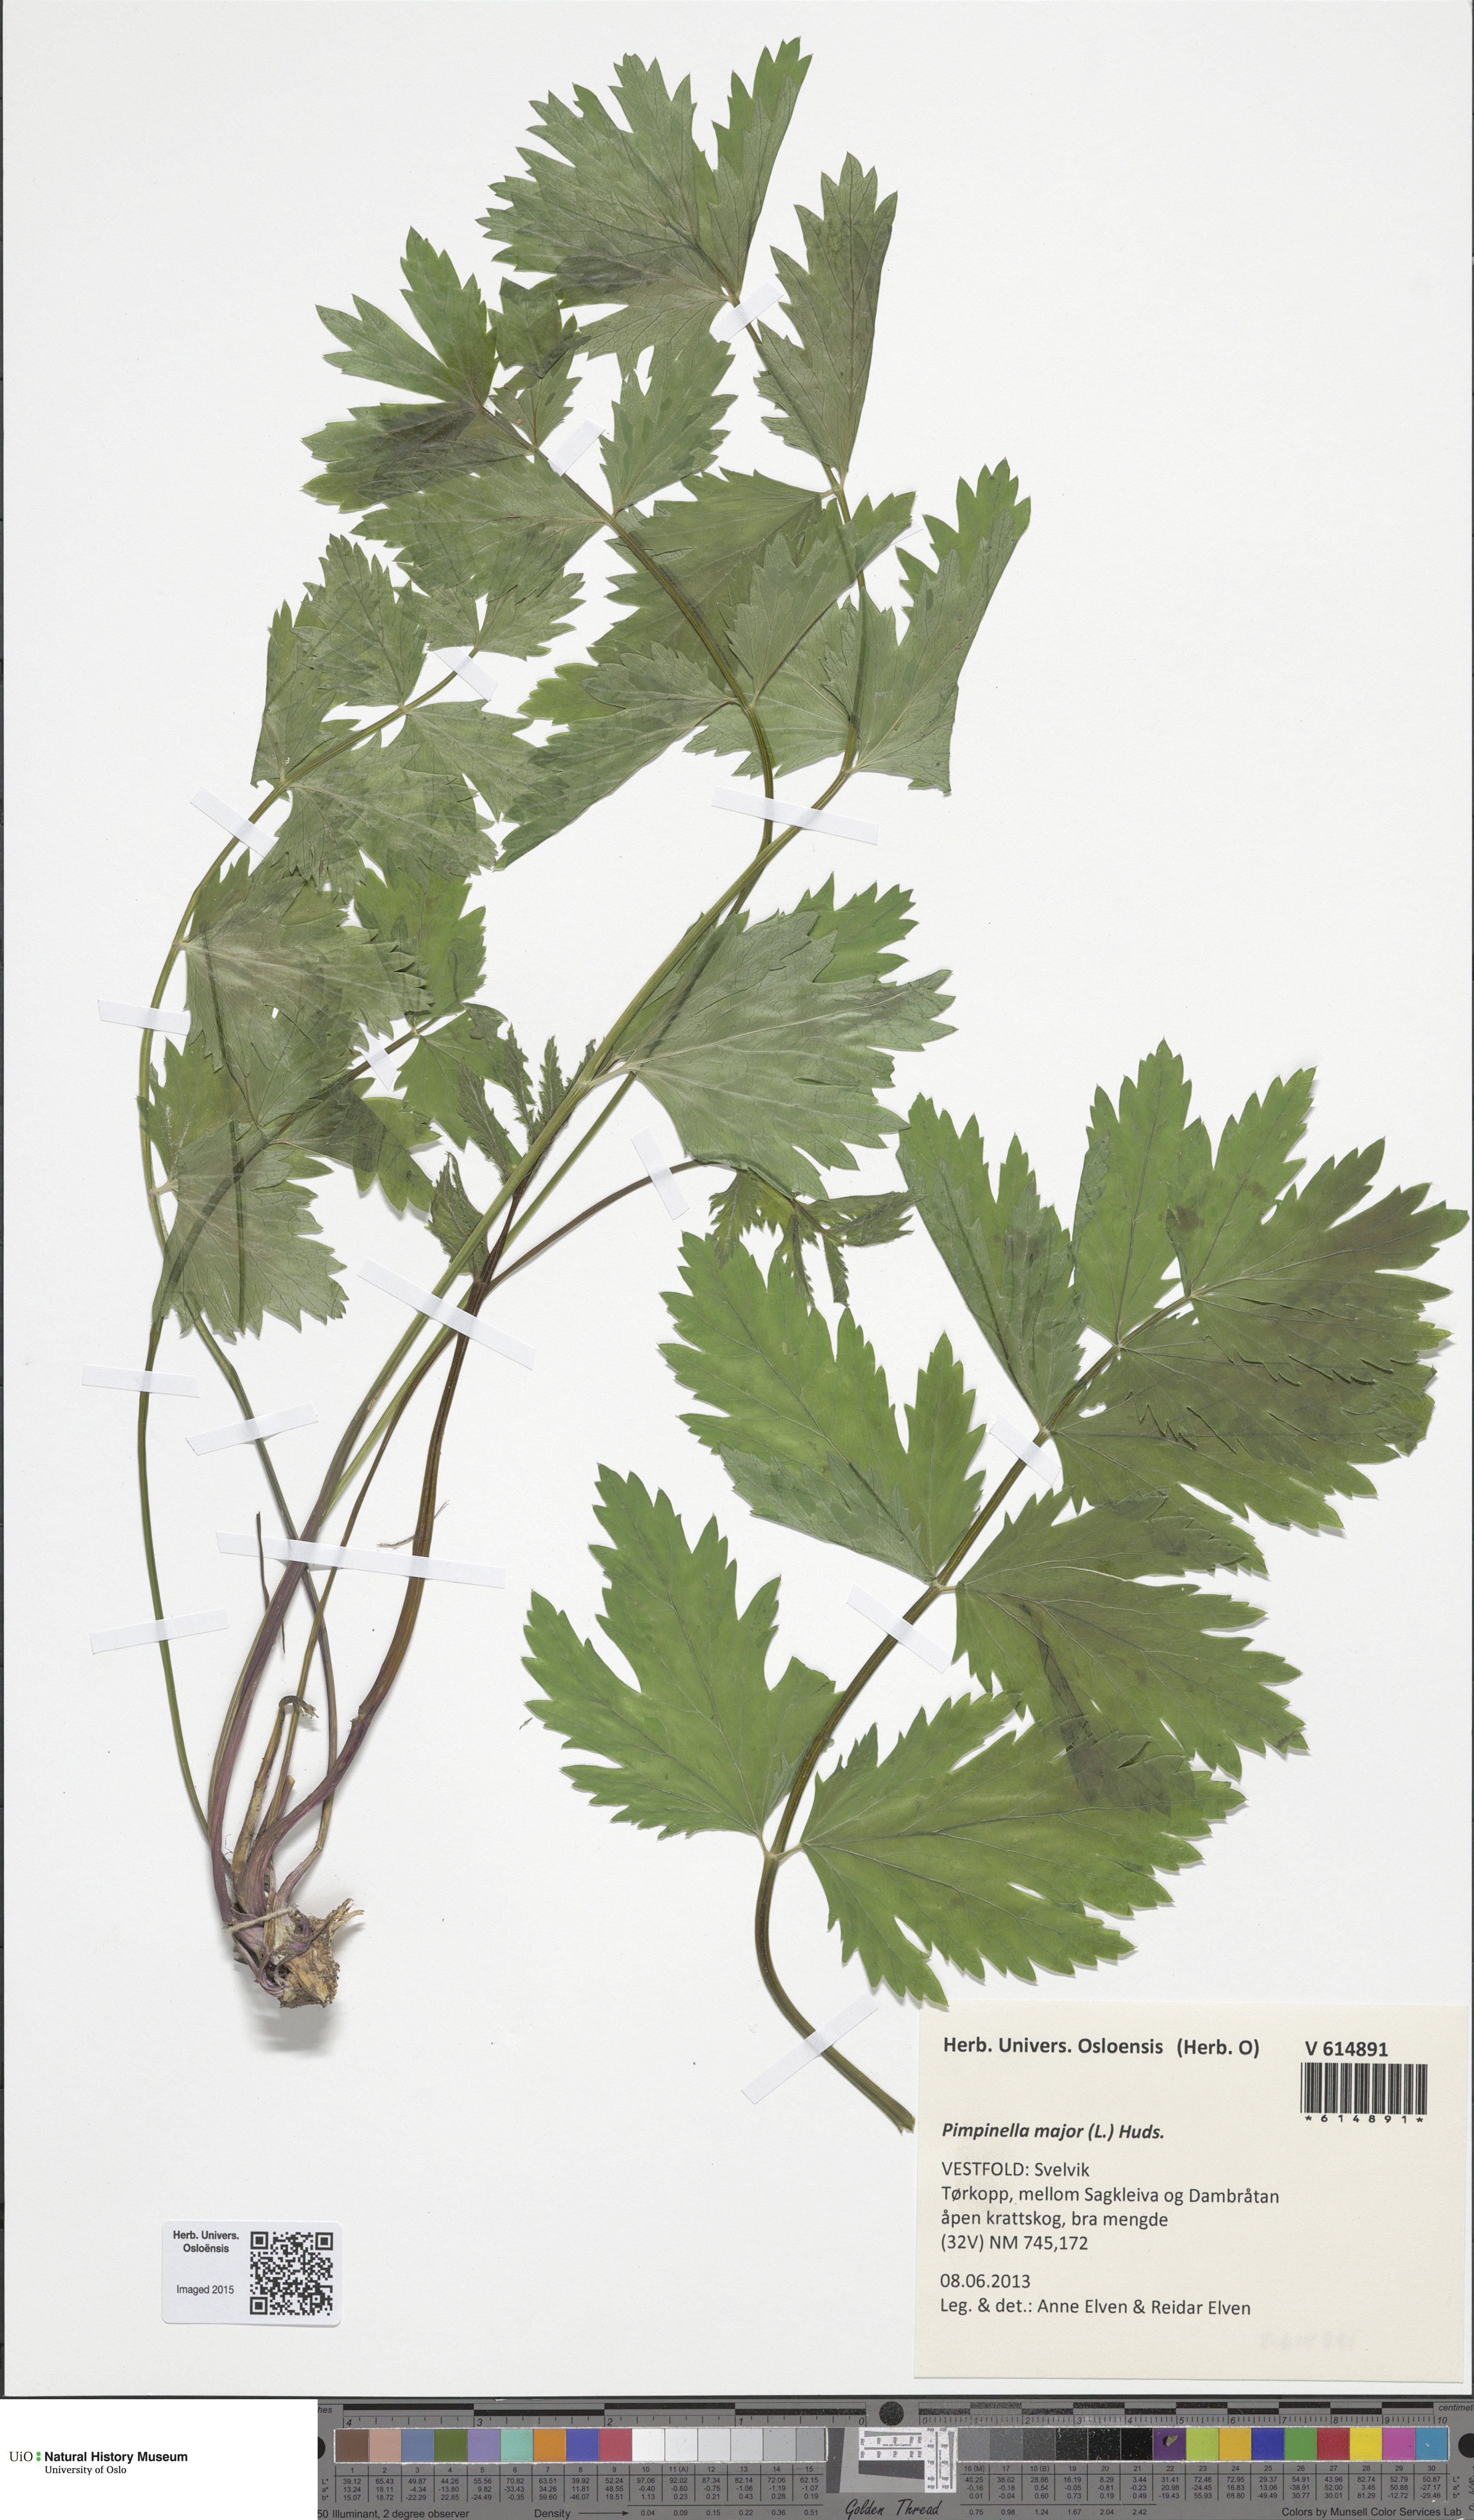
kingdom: Plantae
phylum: Tracheophyta
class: Magnoliopsida
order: Apiales
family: Apiaceae
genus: Pimpinella
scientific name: Pimpinella major
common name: Greater burnet-saxifrage
